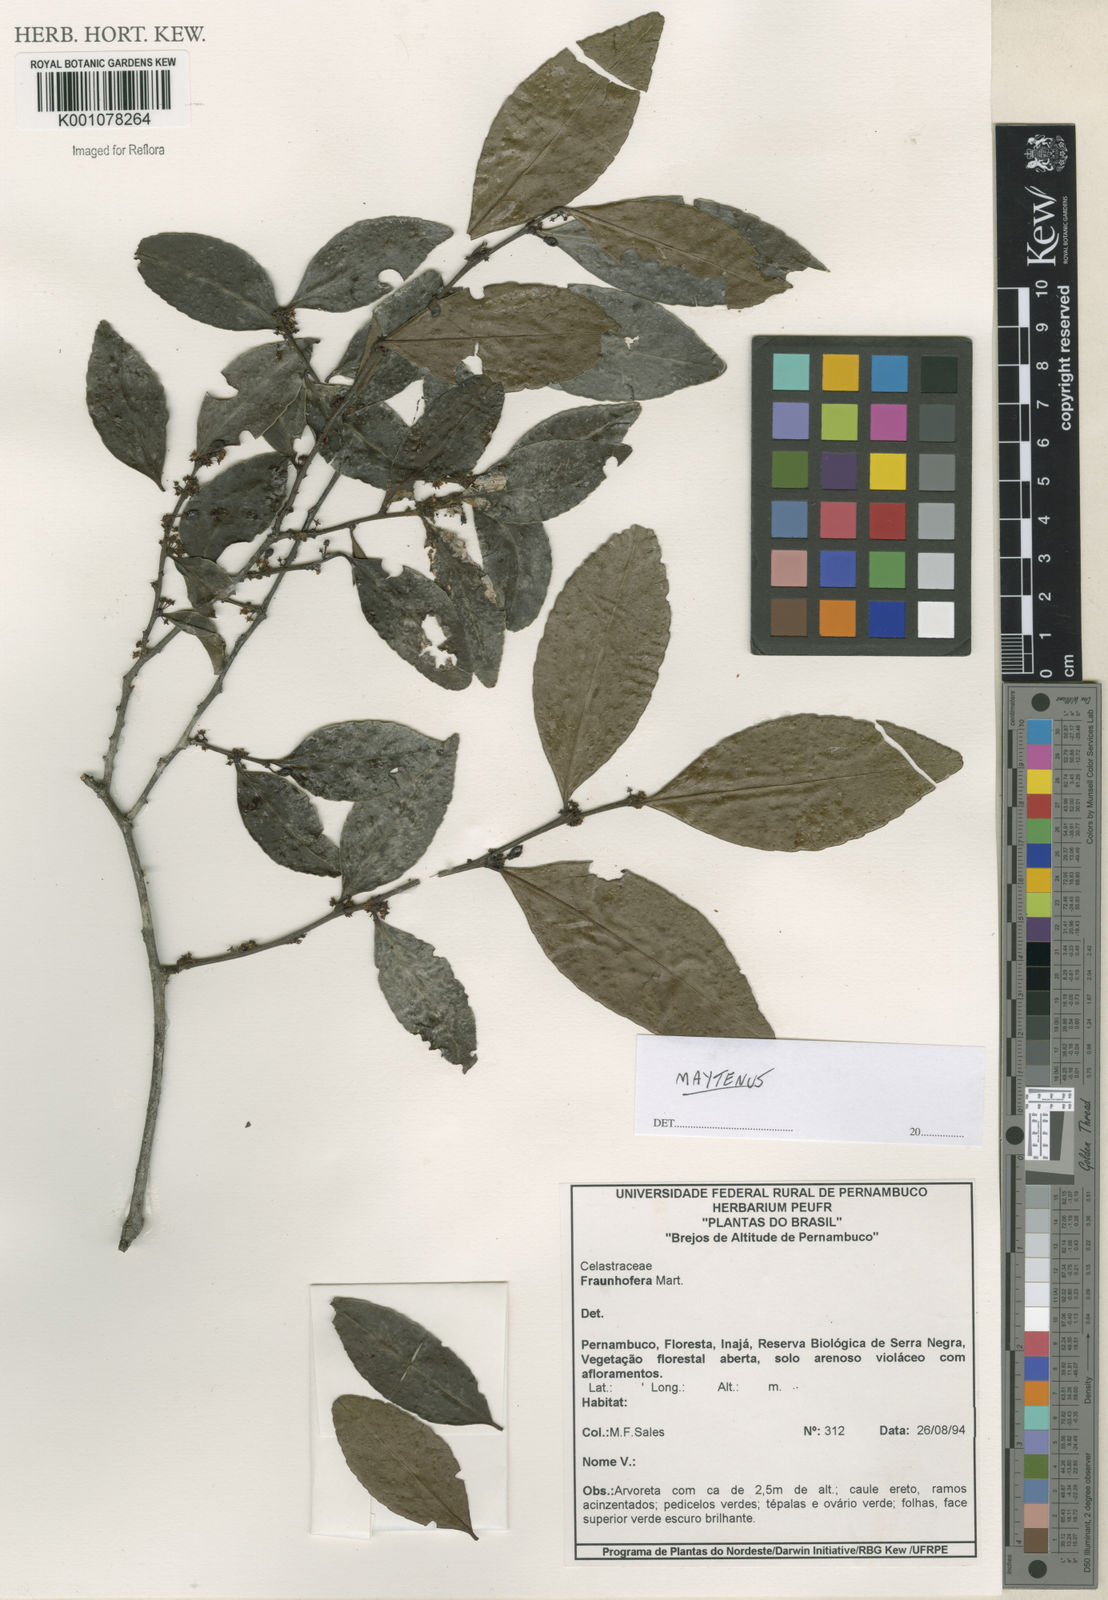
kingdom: Plantae
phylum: Tracheophyta
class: Magnoliopsida
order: Celastrales
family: Celastraceae
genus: Maytenus
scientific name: Maytenus
